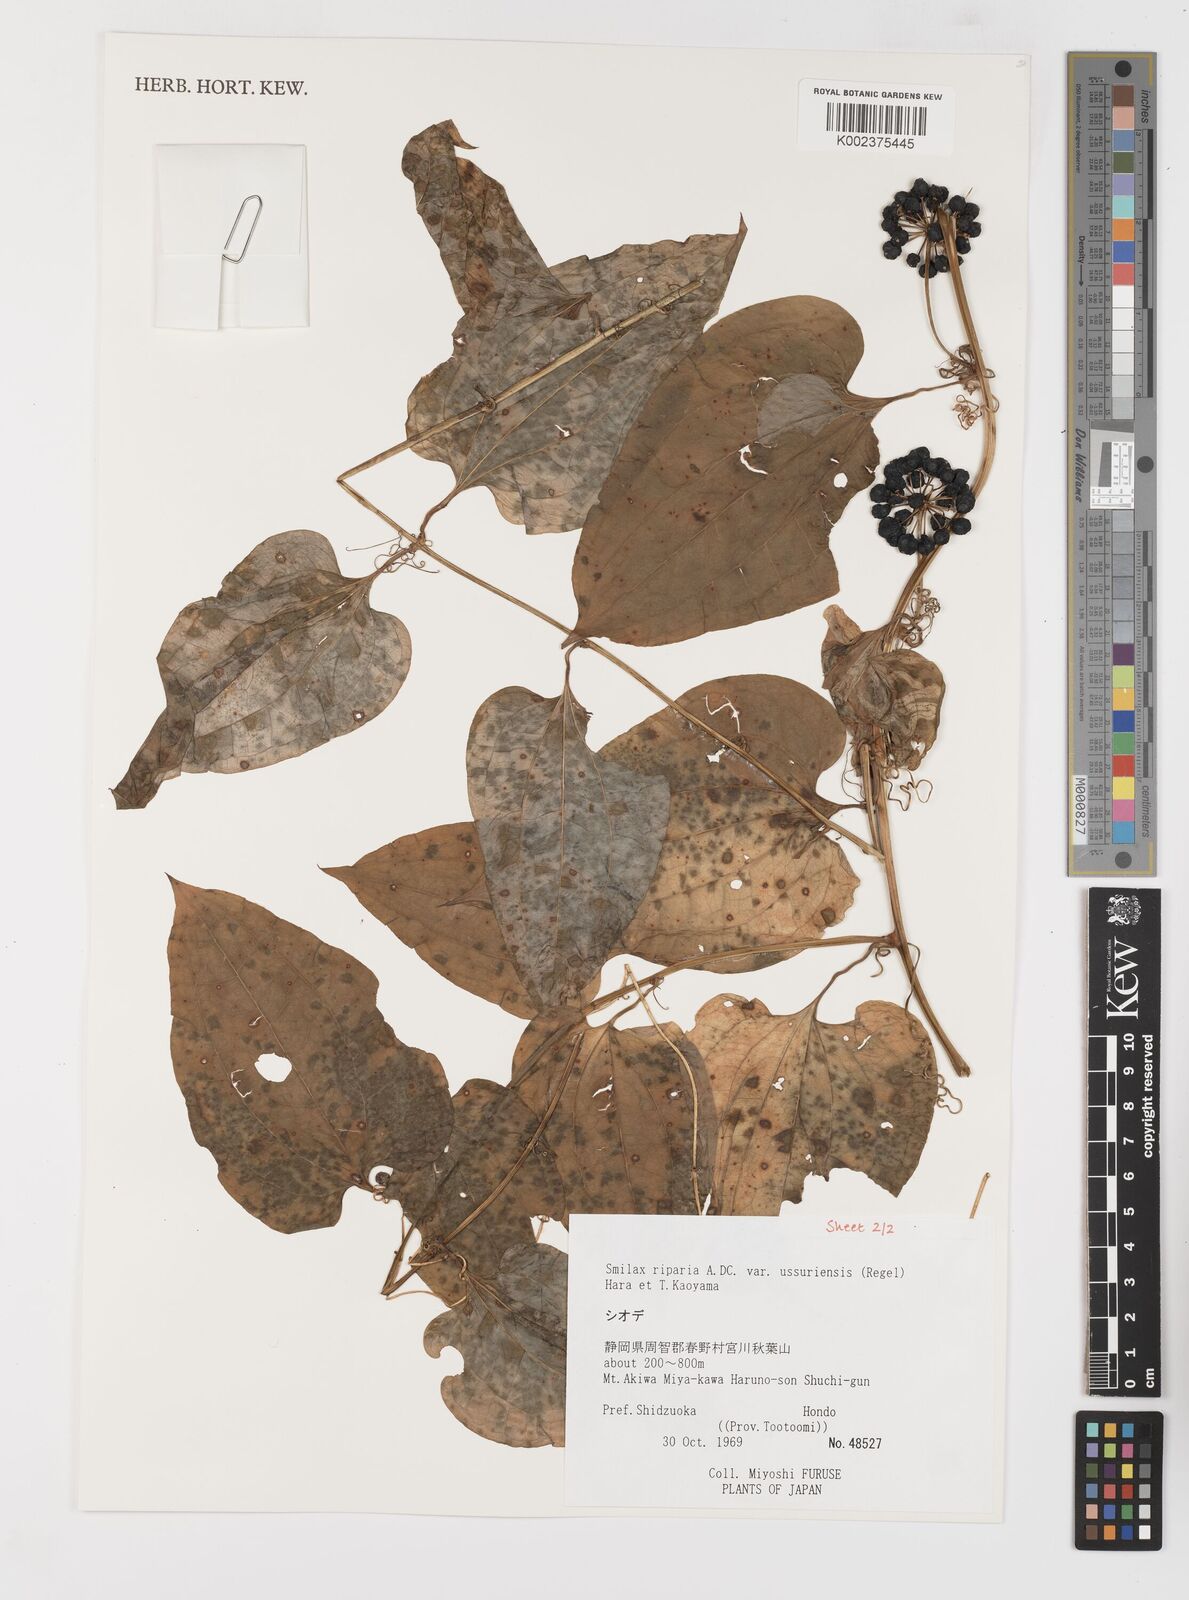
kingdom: Plantae
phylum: Tracheophyta
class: Liliopsida
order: Liliales
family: Smilacaceae
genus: Smilax
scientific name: Smilax riparia
